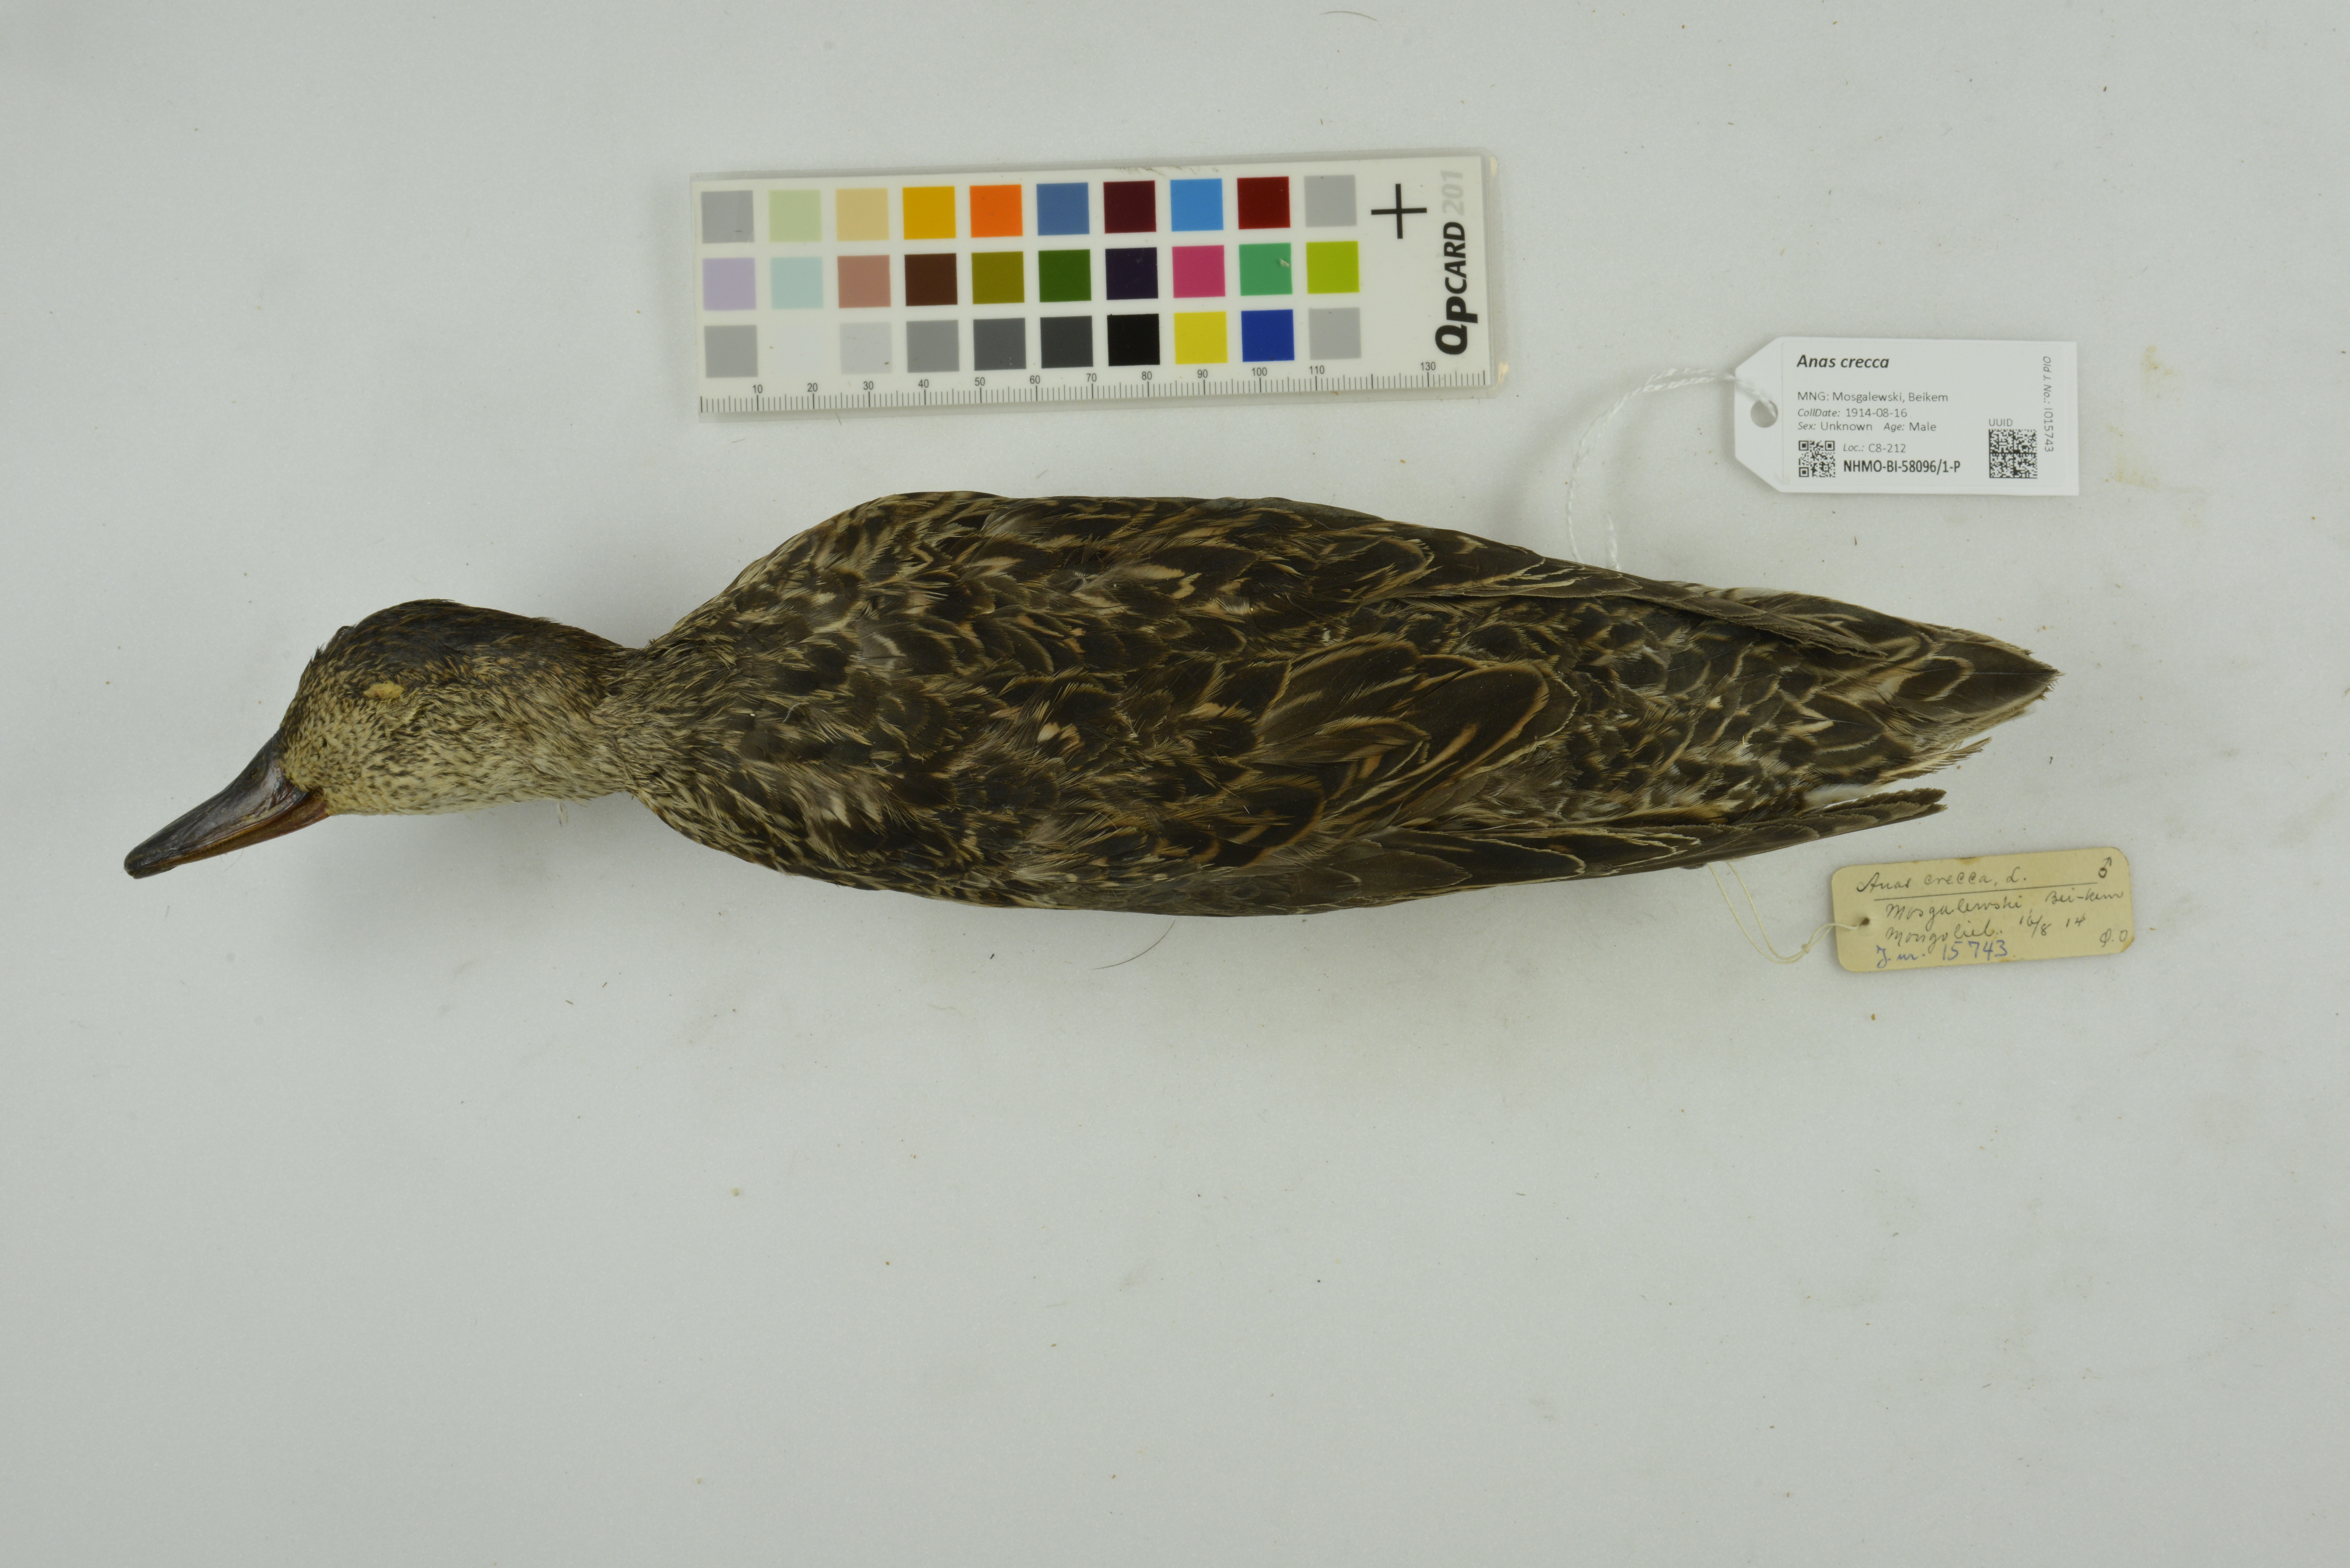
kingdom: Animalia
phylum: Chordata
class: Aves
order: Anseriformes
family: Anatidae
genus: Anas
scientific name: Anas crecca
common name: Eurasian teal
